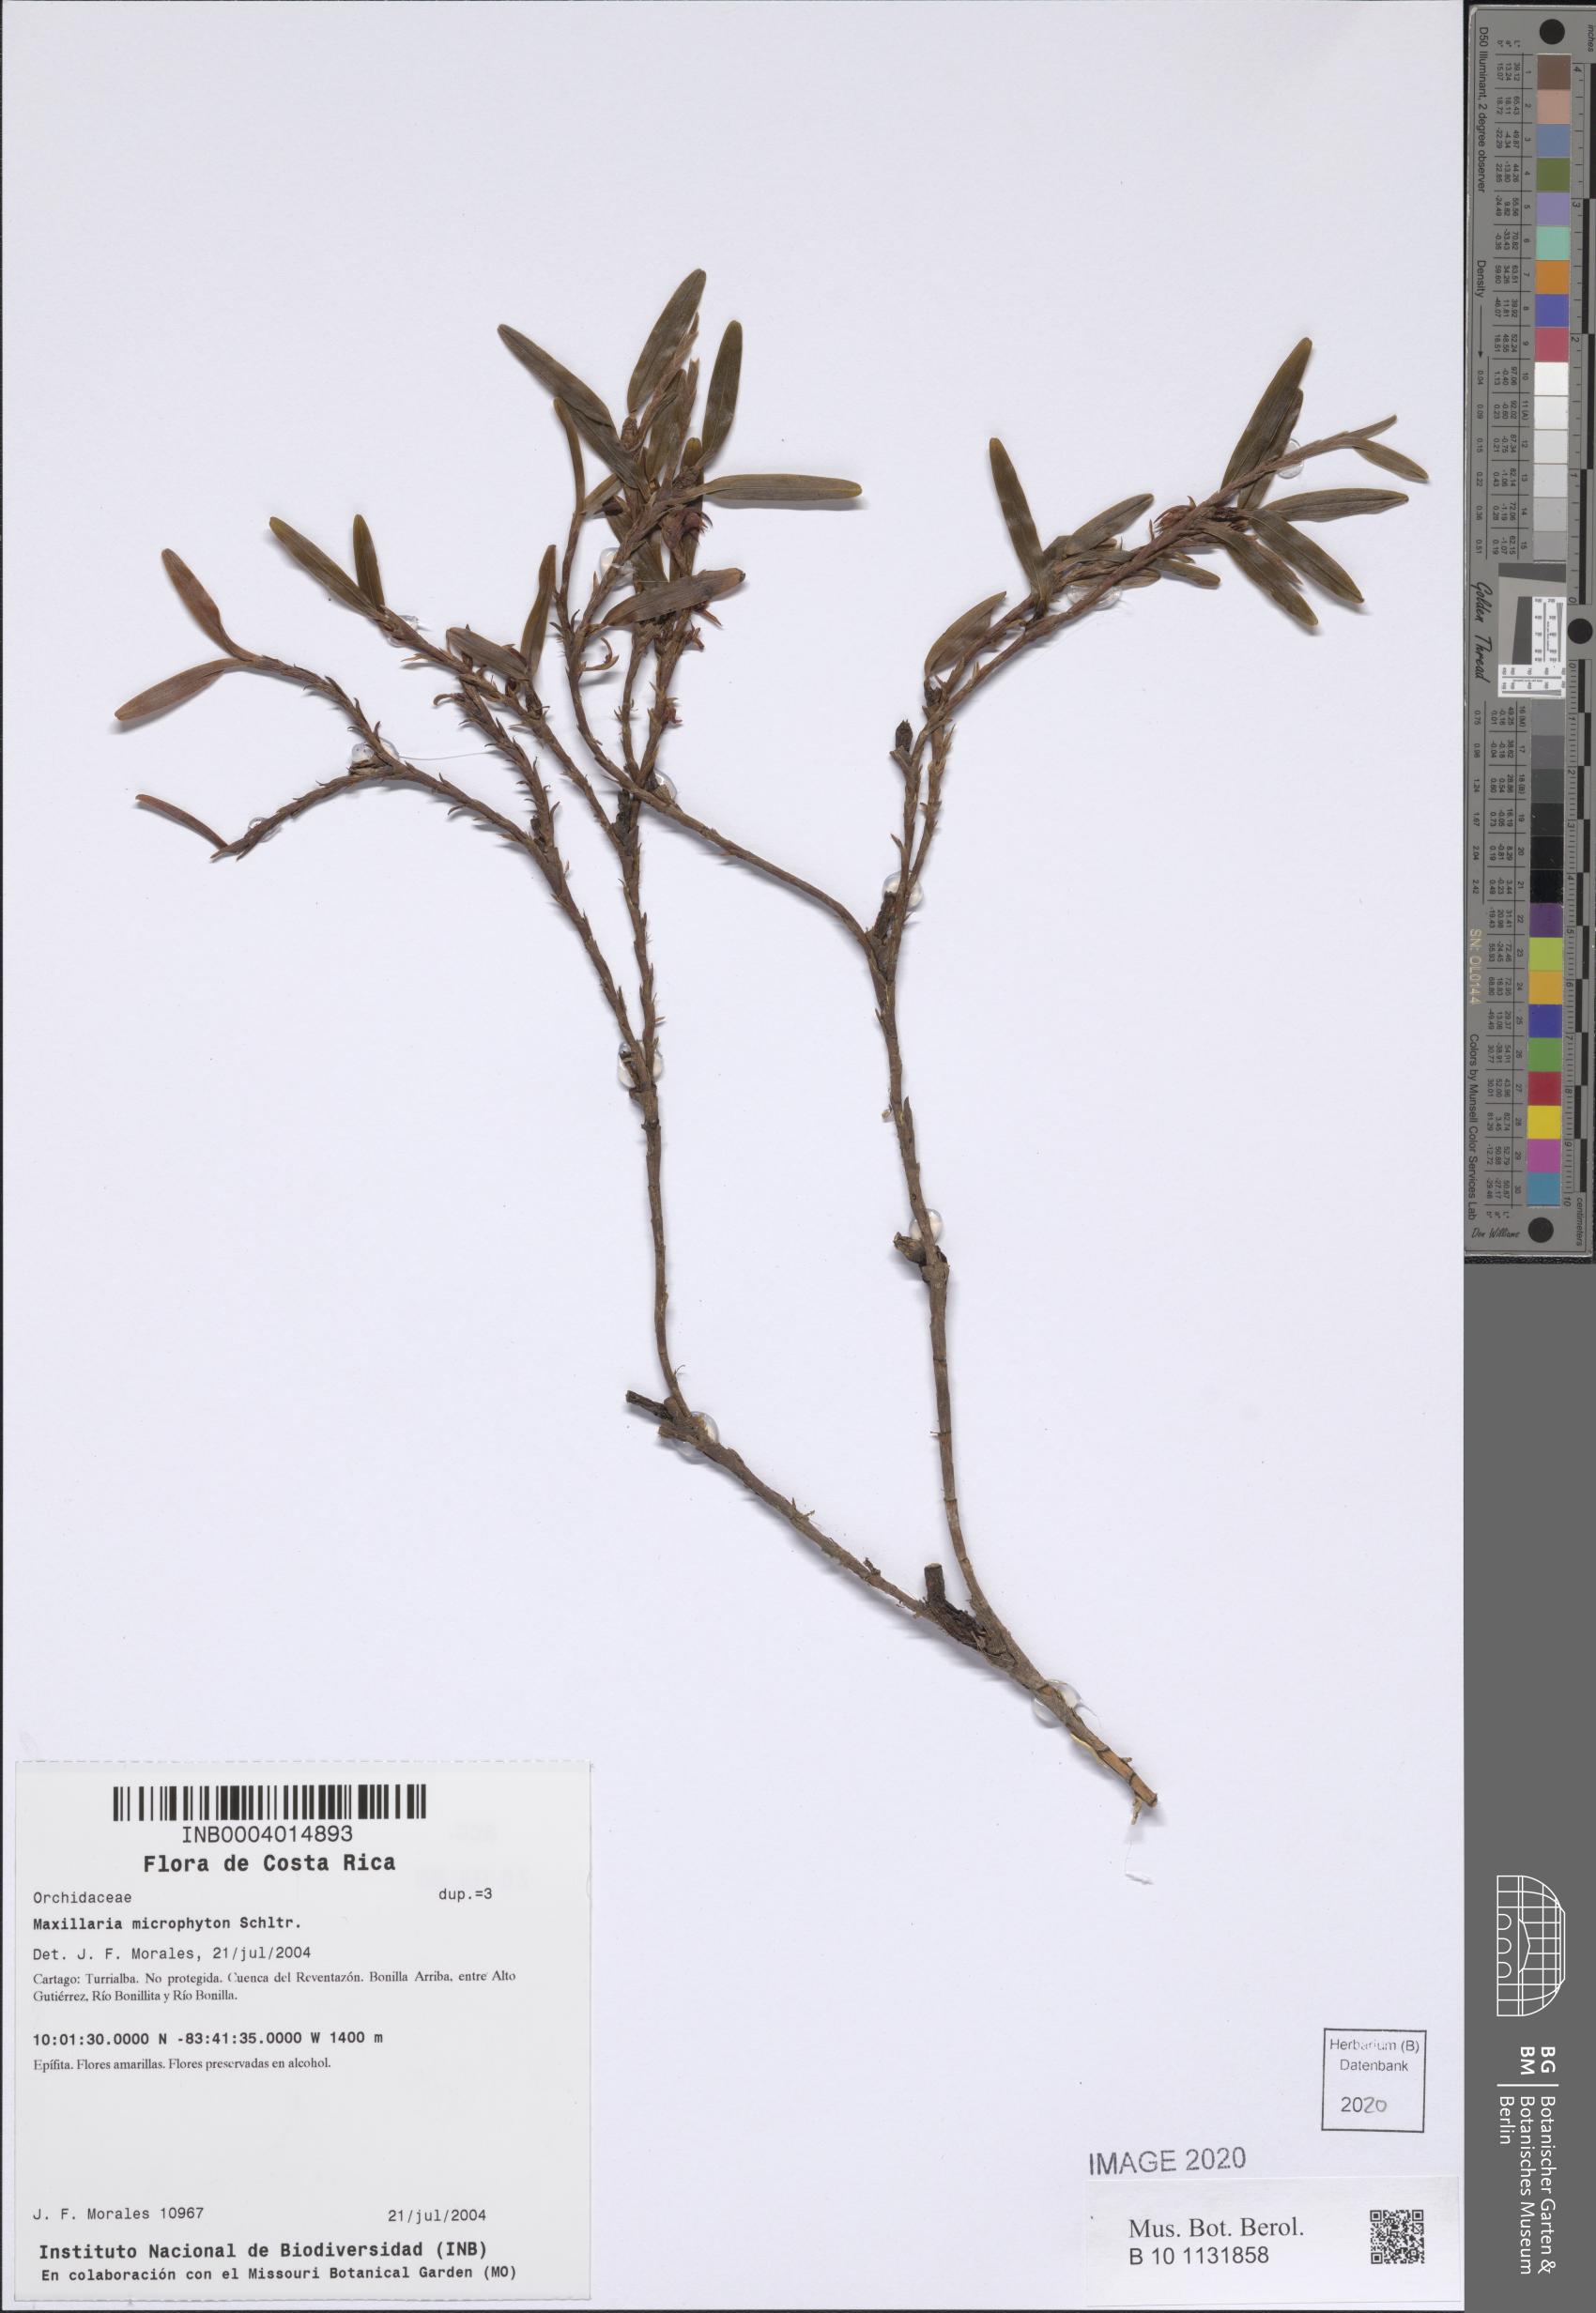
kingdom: Plantae
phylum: Tracheophyta
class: Liliopsida
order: Asparagales
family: Orchidaceae
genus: Maxillaria
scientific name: Maxillaria microphyton
